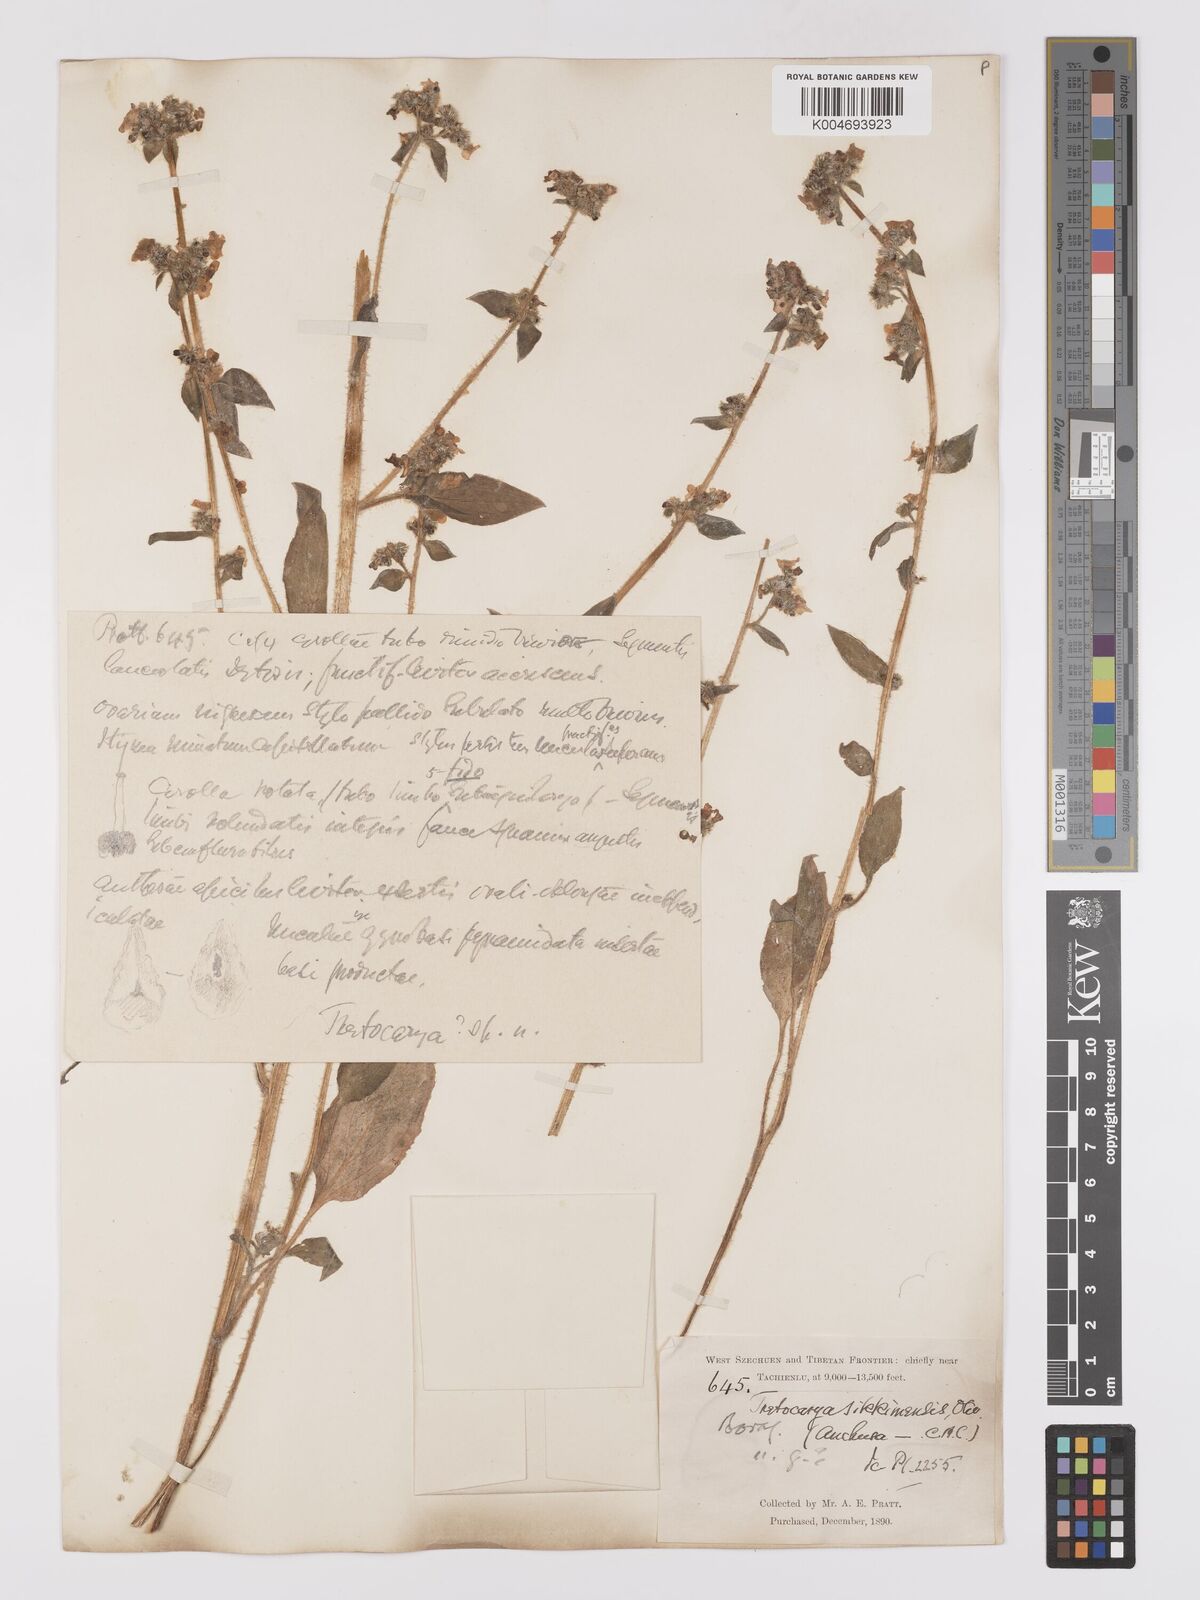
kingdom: Plantae
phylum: Tracheophyta
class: Magnoliopsida
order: Boraginales
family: Boraginaceae
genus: Microula
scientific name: Microula sikkimensis
